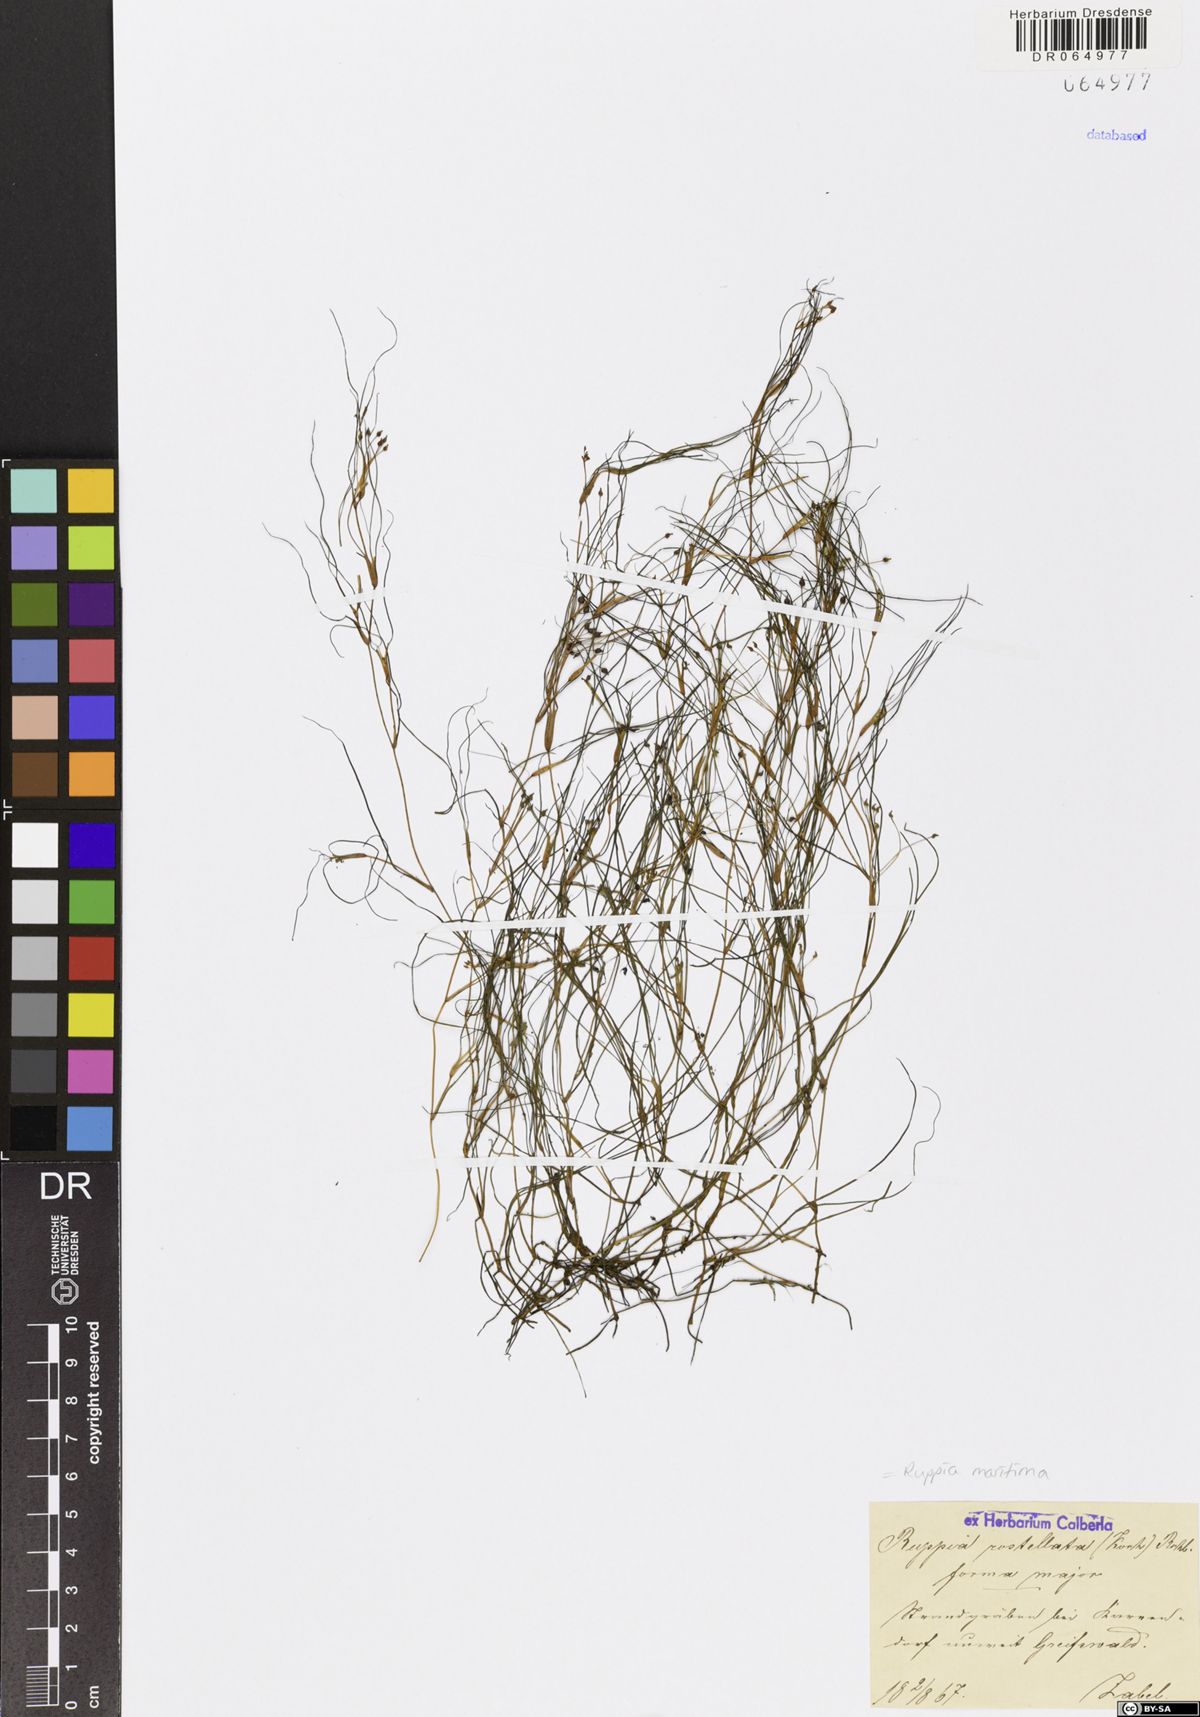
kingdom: Plantae
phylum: Tracheophyta
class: Liliopsida
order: Alismatales
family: Ruppiaceae
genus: Ruppia
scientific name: Ruppia maritima
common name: Beaked tasselweed
